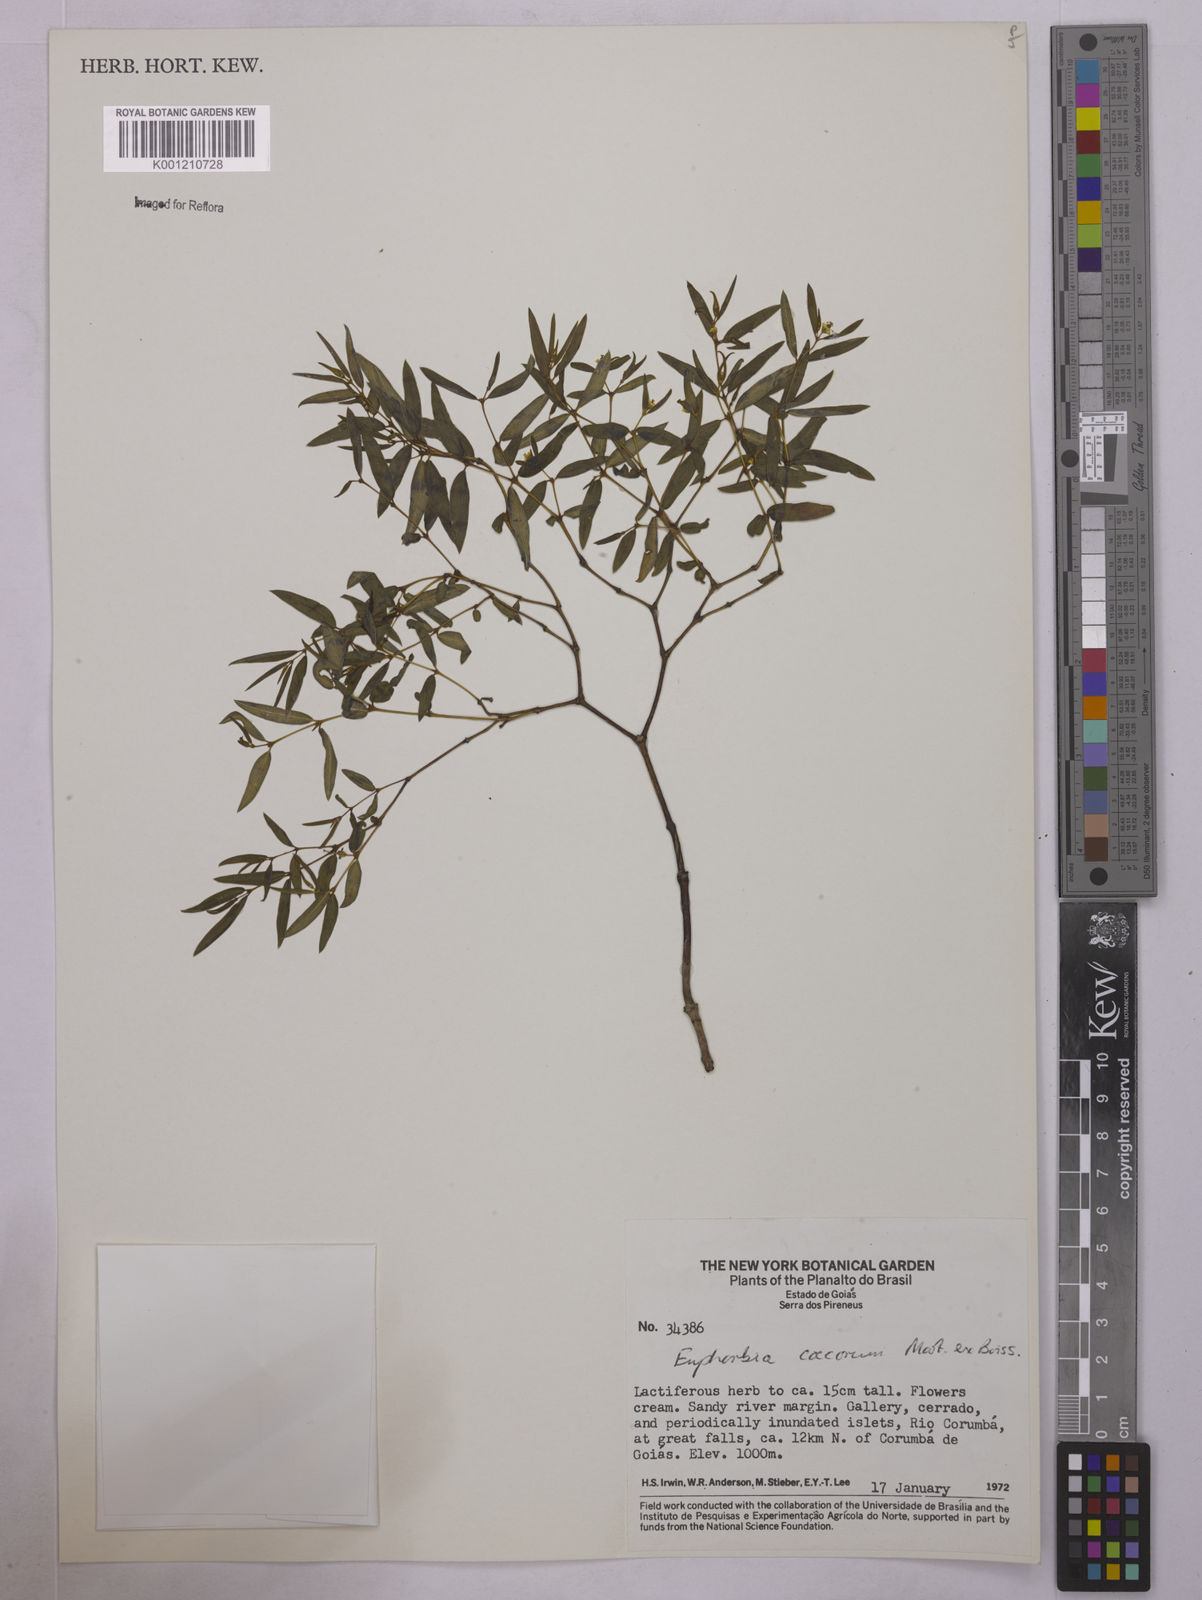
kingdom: Plantae
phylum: Tracheophyta
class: Magnoliopsida
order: Malpighiales
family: Euphorbiaceae
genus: Euphorbia
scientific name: Euphorbia potentilloides
